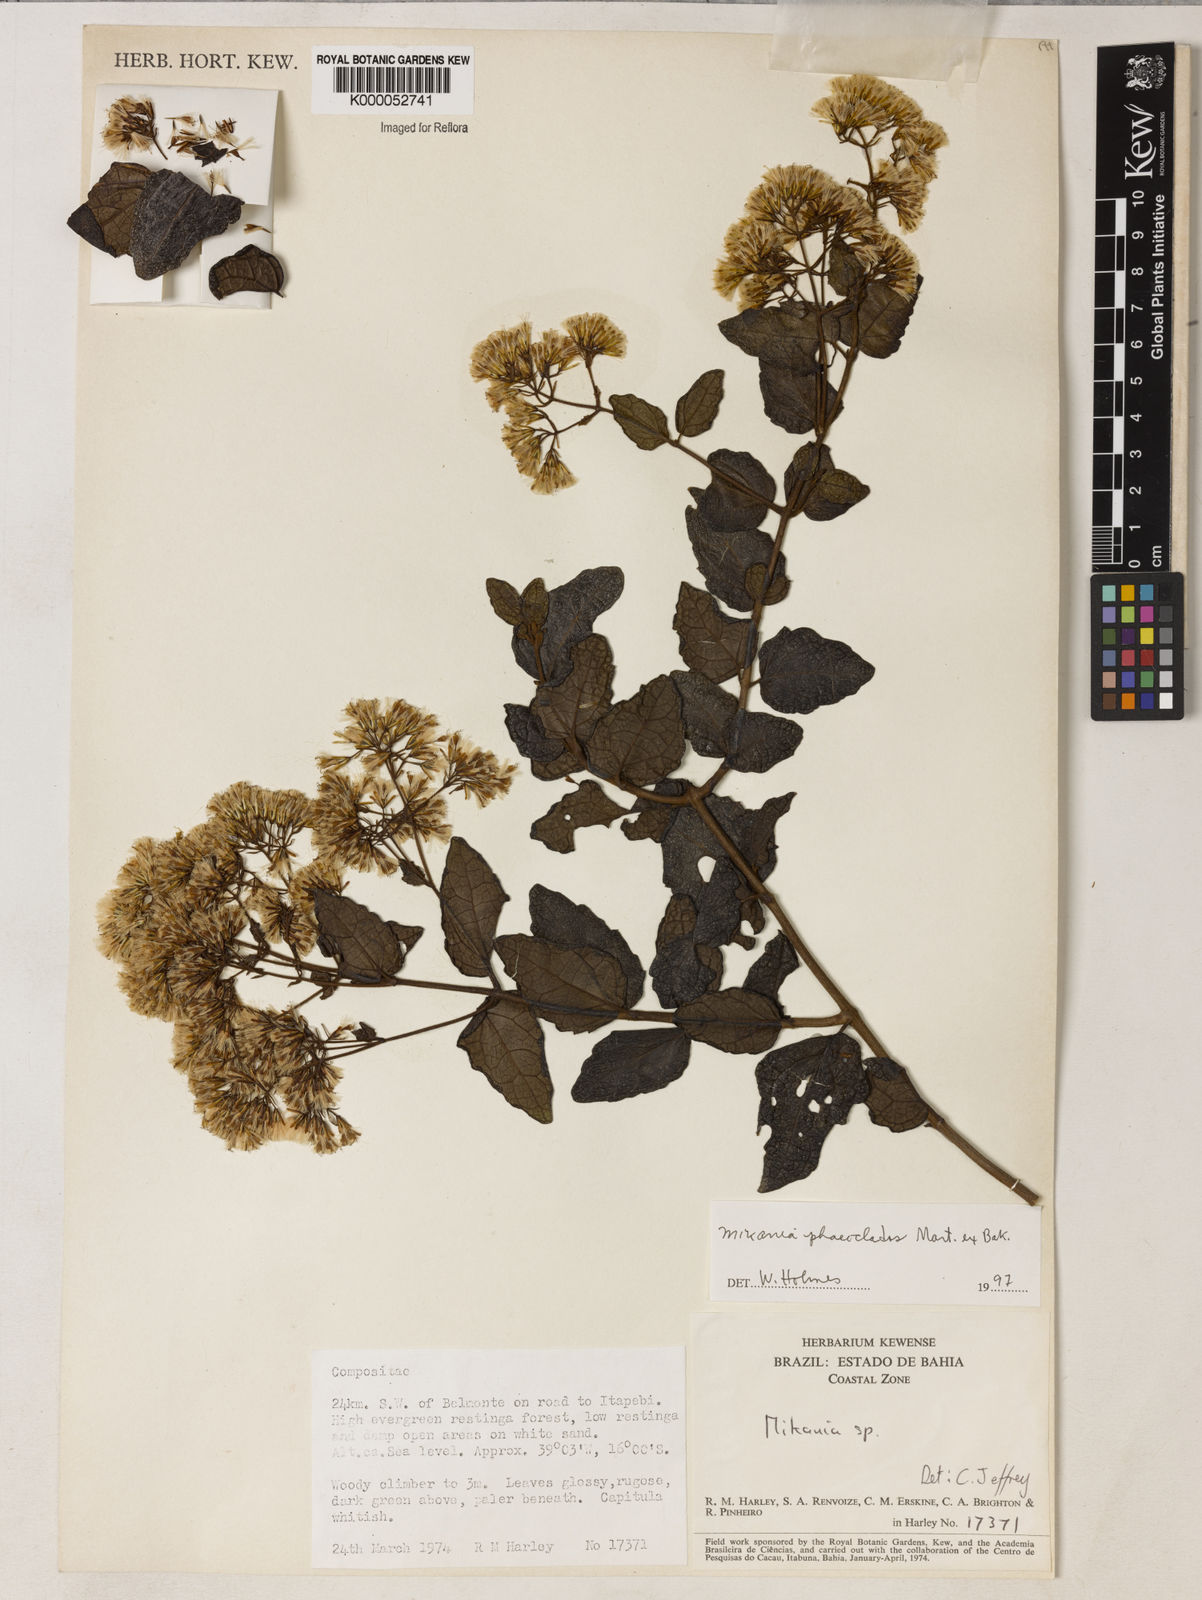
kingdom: Plantae
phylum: Tracheophyta
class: Magnoliopsida
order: Asterales
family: Asteraceae
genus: Mikania
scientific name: Mikania phaeoclados
